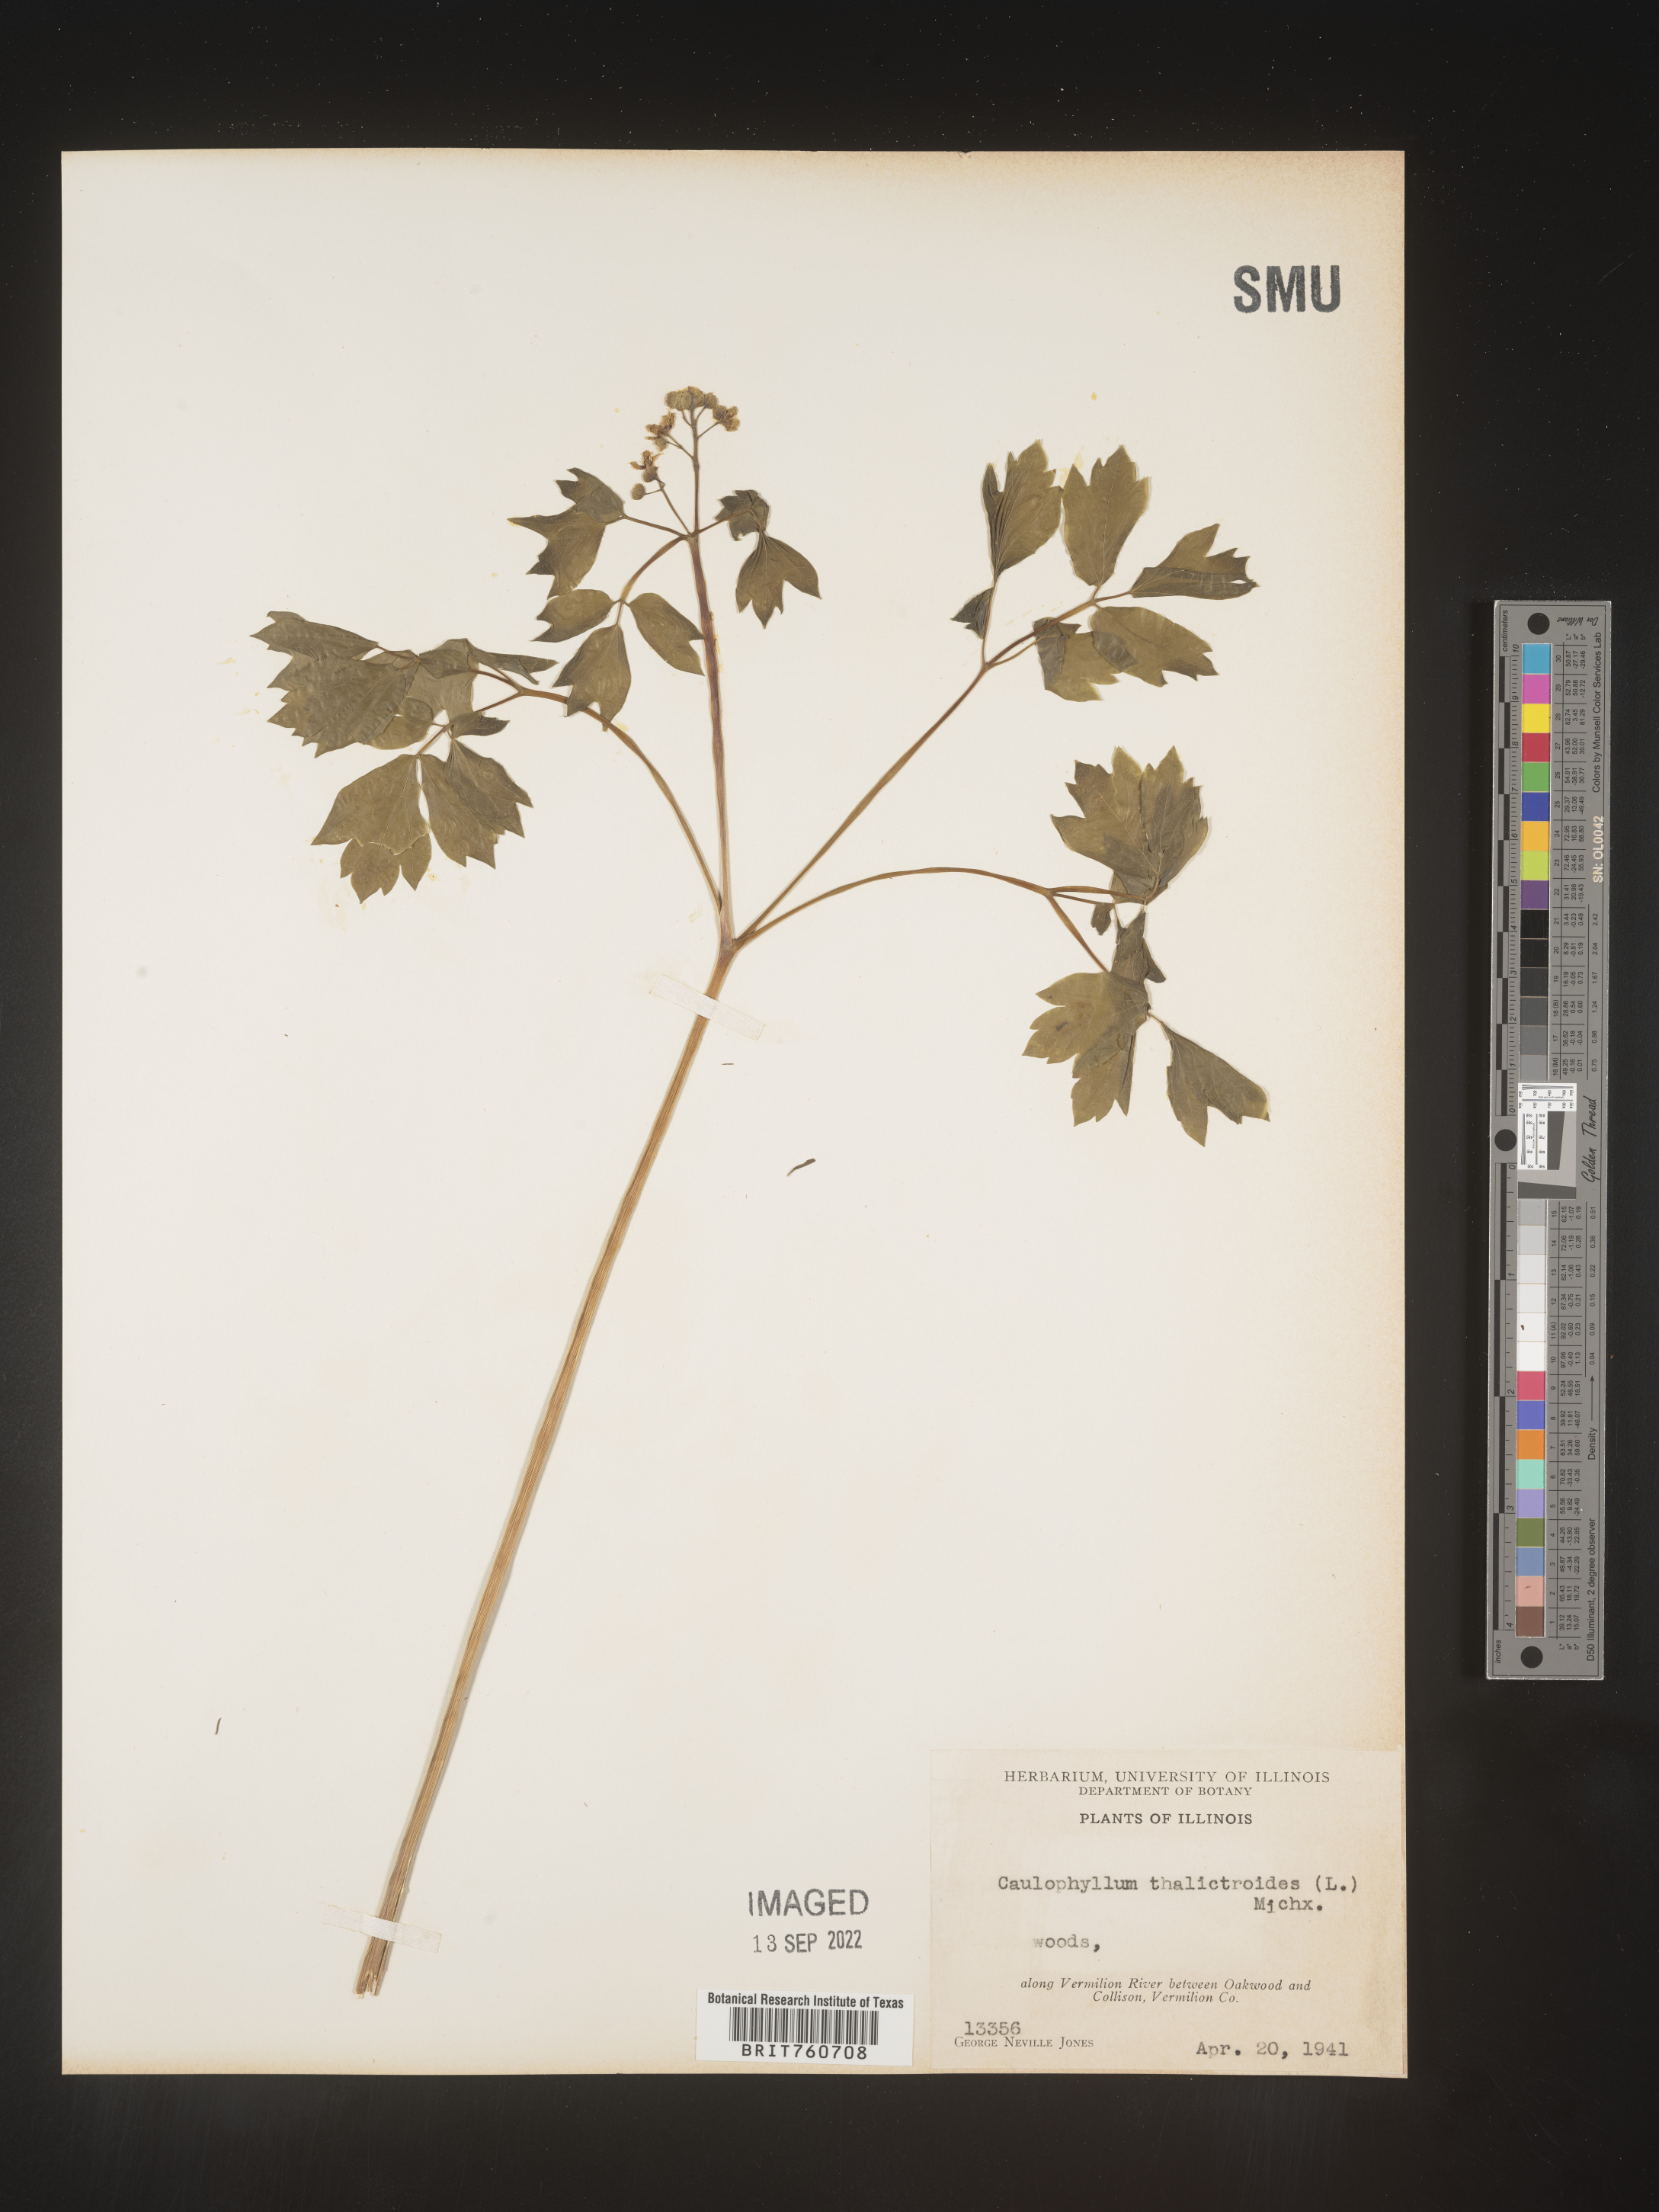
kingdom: Plantae
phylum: Tracheophyta
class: Magnoliopsida
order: Ranunculales
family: Berberidaceae
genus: Caulophyllum
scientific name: Caulophyllum thalictroides
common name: Blue cohosh
